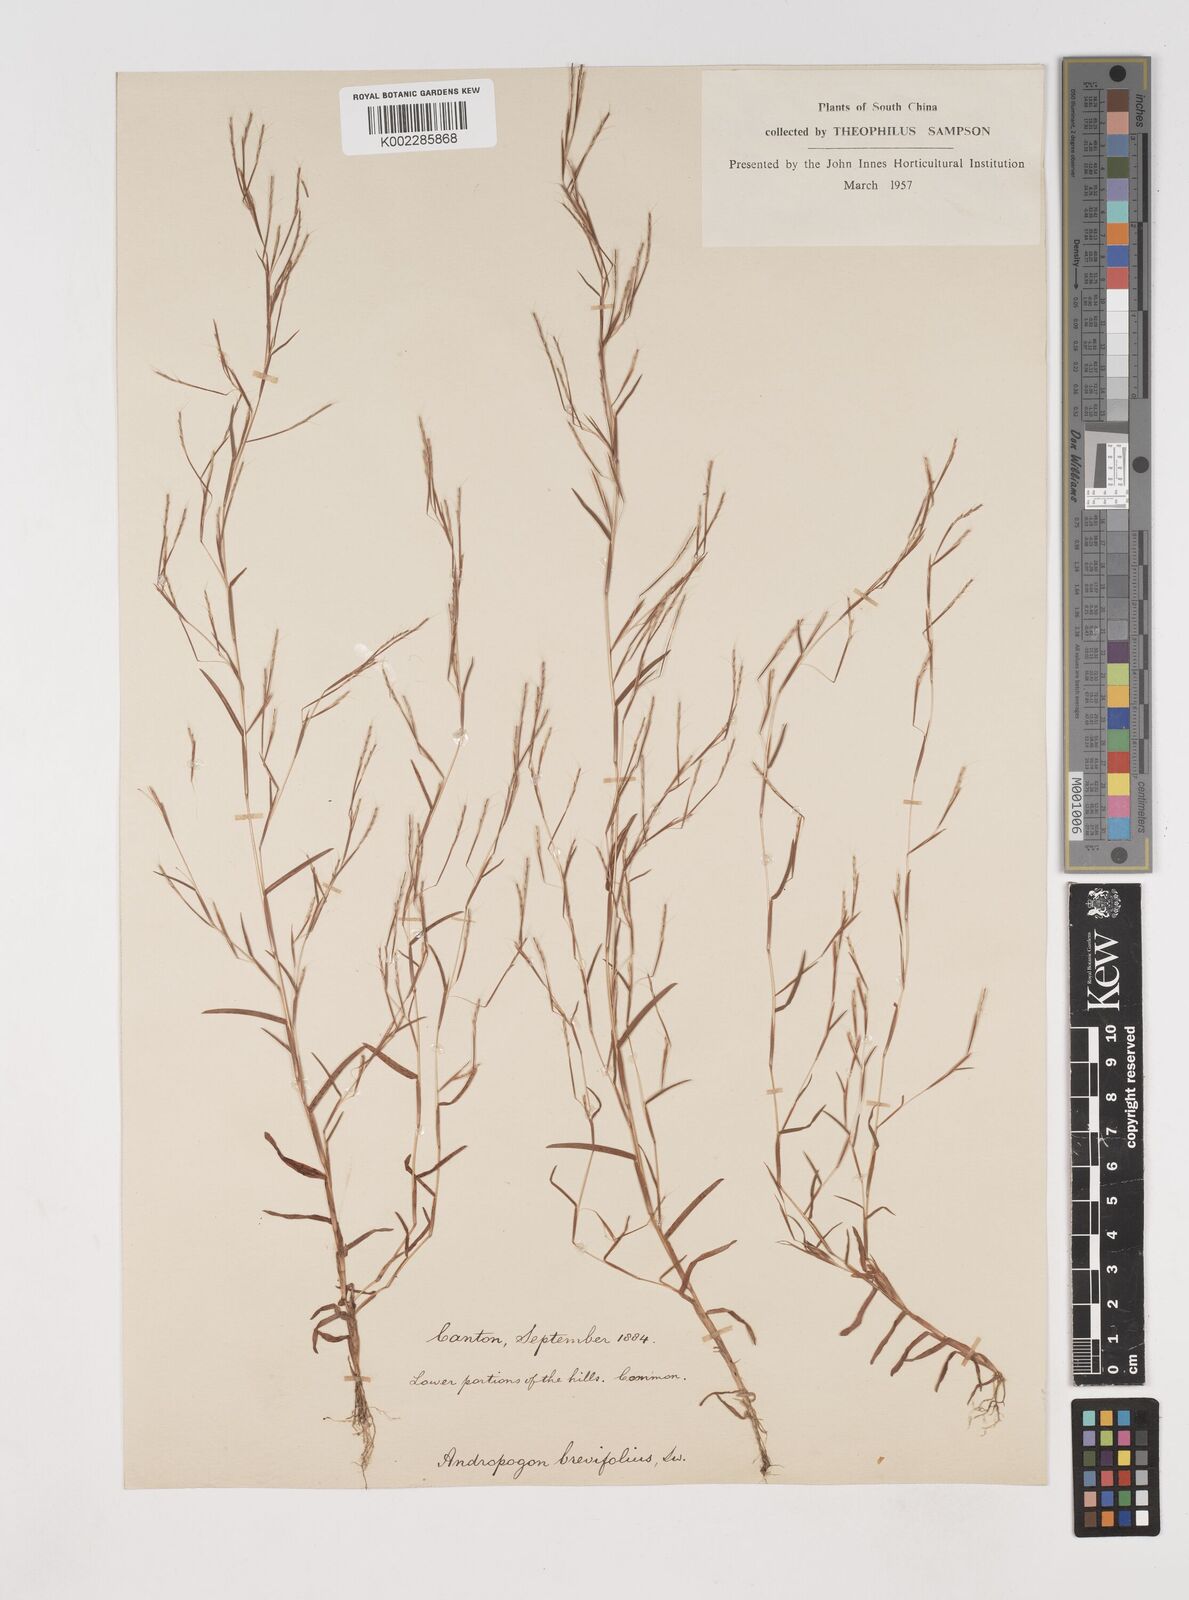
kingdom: Plantae
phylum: Tracheophyta
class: Liliopsida
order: Poales
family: Poaceae
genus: Schizachyrium
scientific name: Schizachyrium brevifolium
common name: Serillo dulce
